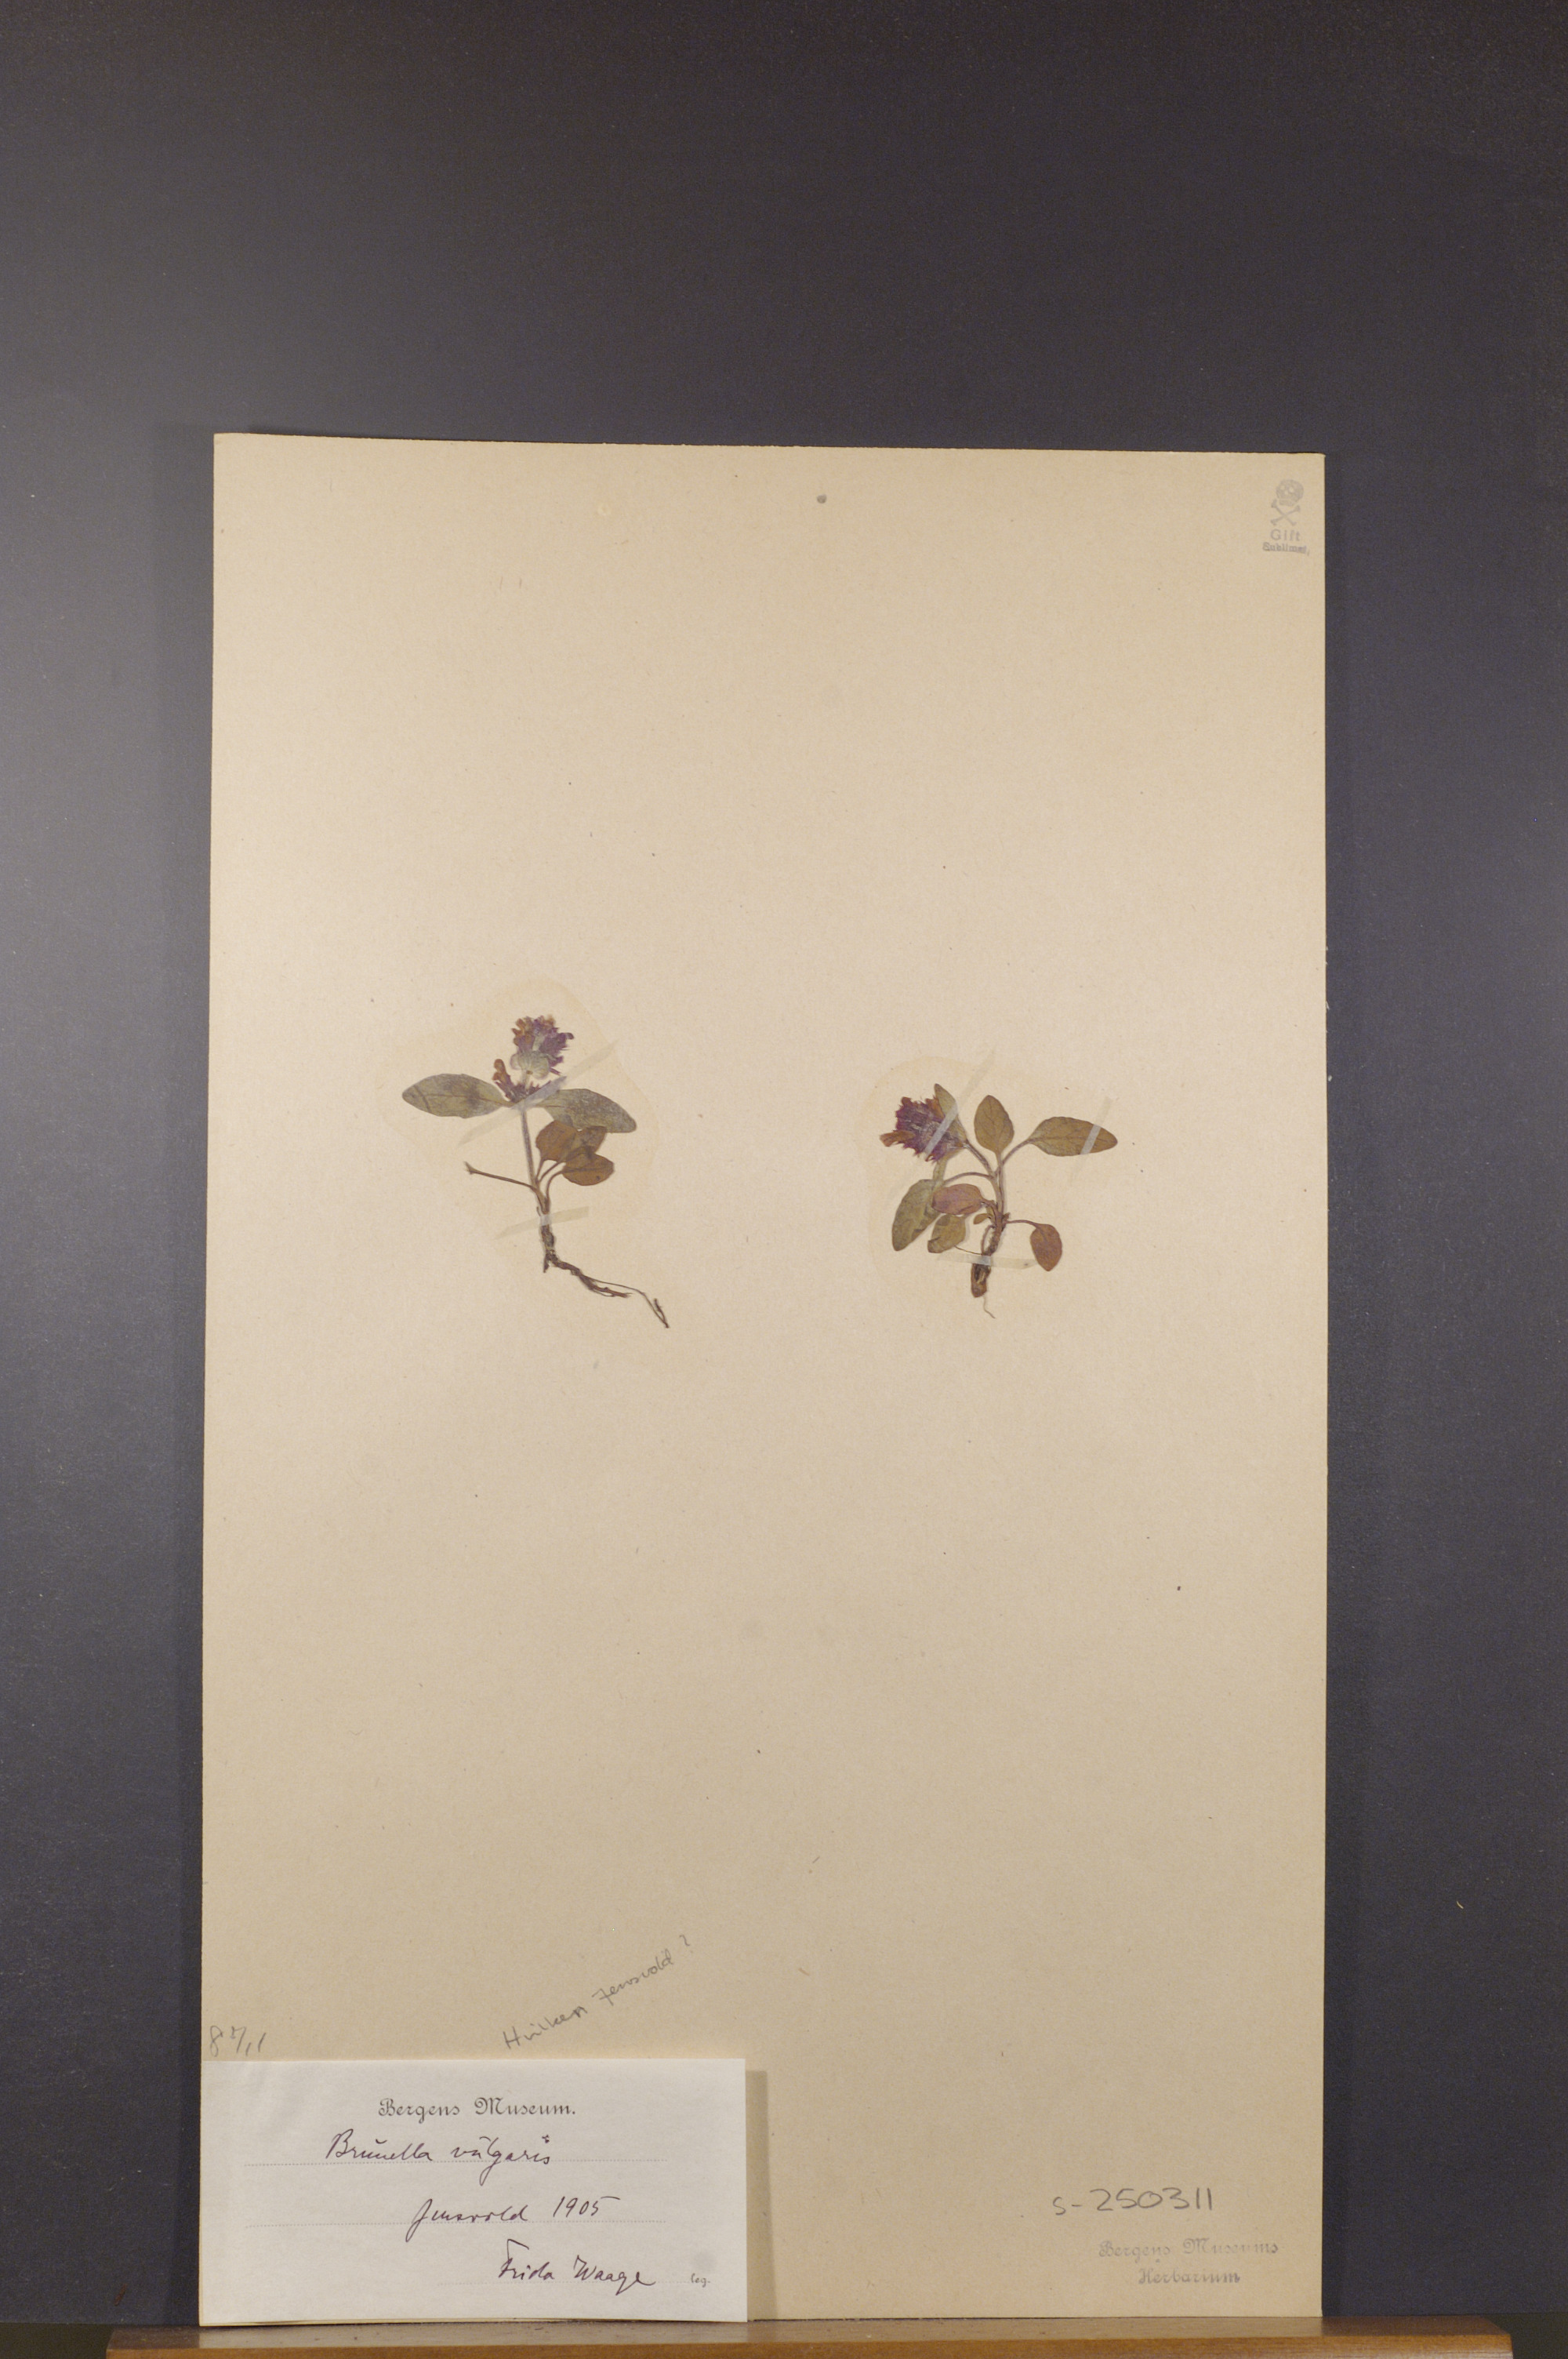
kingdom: Plantae
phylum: Tracheophyta
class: Magnoliopsida
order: Lamiales
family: Lamiaceae
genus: Prunella
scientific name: Prunella vulgaris
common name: Heal-all
